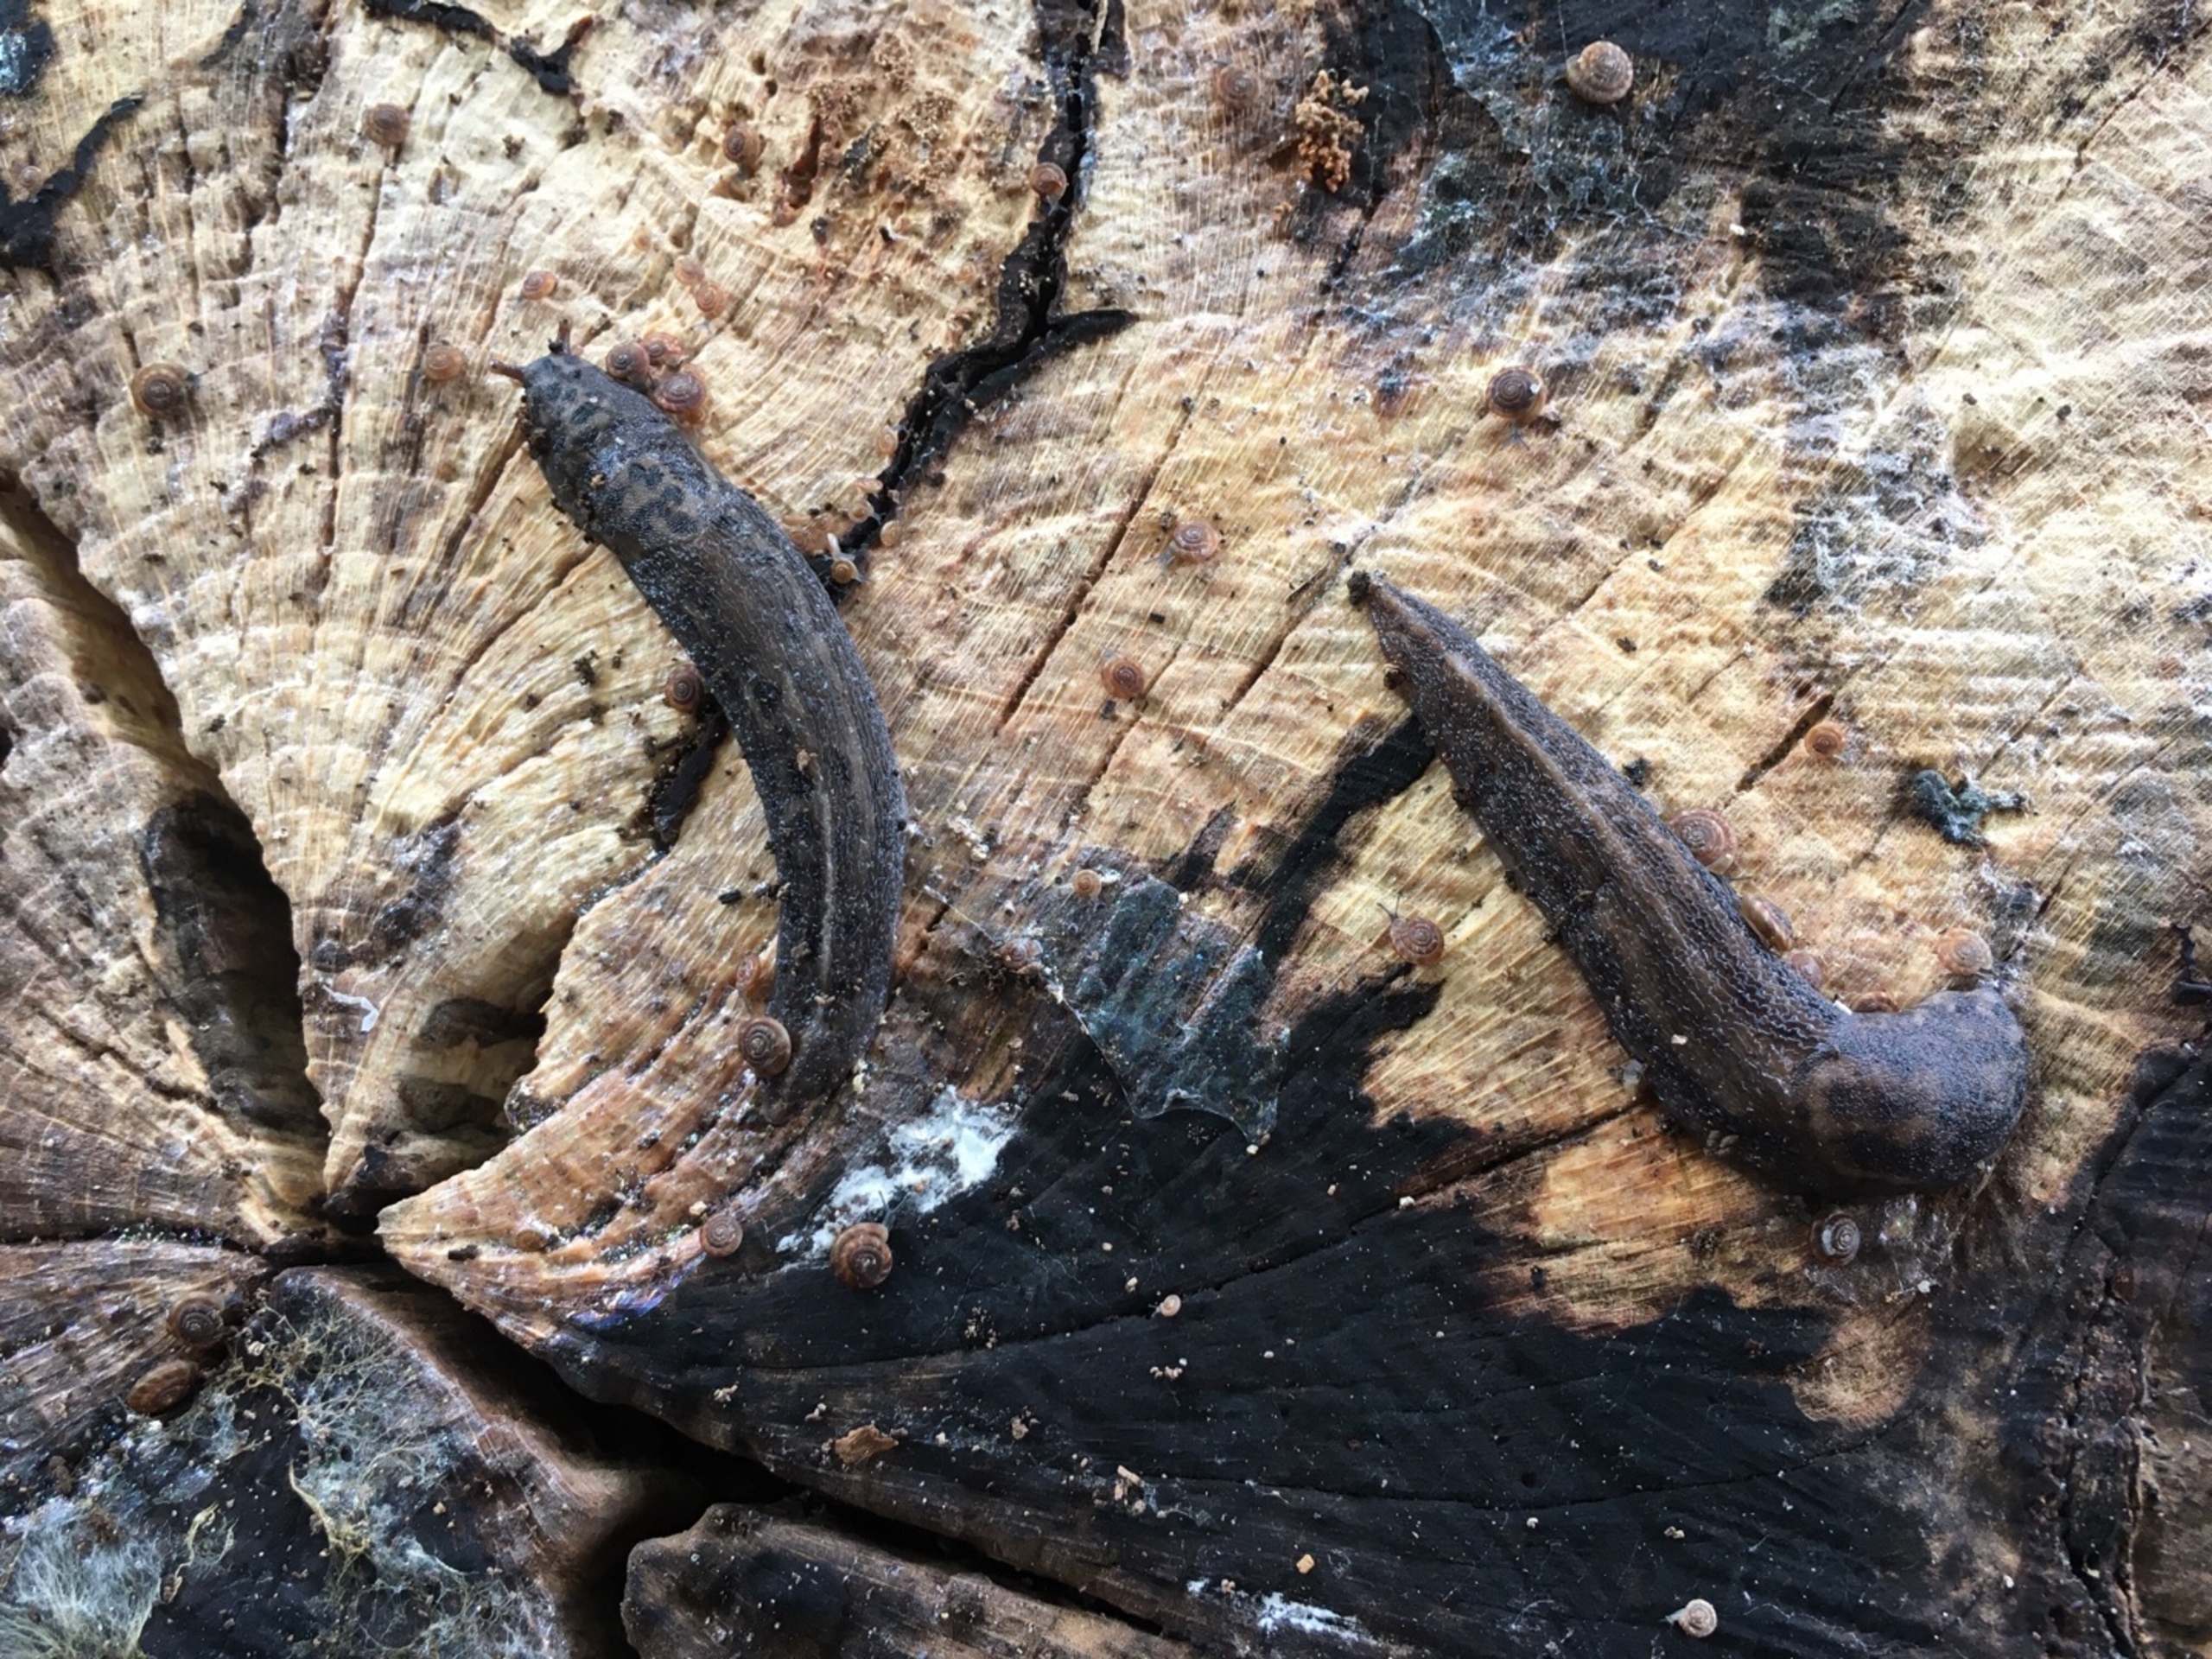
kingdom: Animalia
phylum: Mollusca
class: Gastropoda
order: Stylommatophora
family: Limacidae
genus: Limax
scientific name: Limax maximus
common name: Pantersnegl
